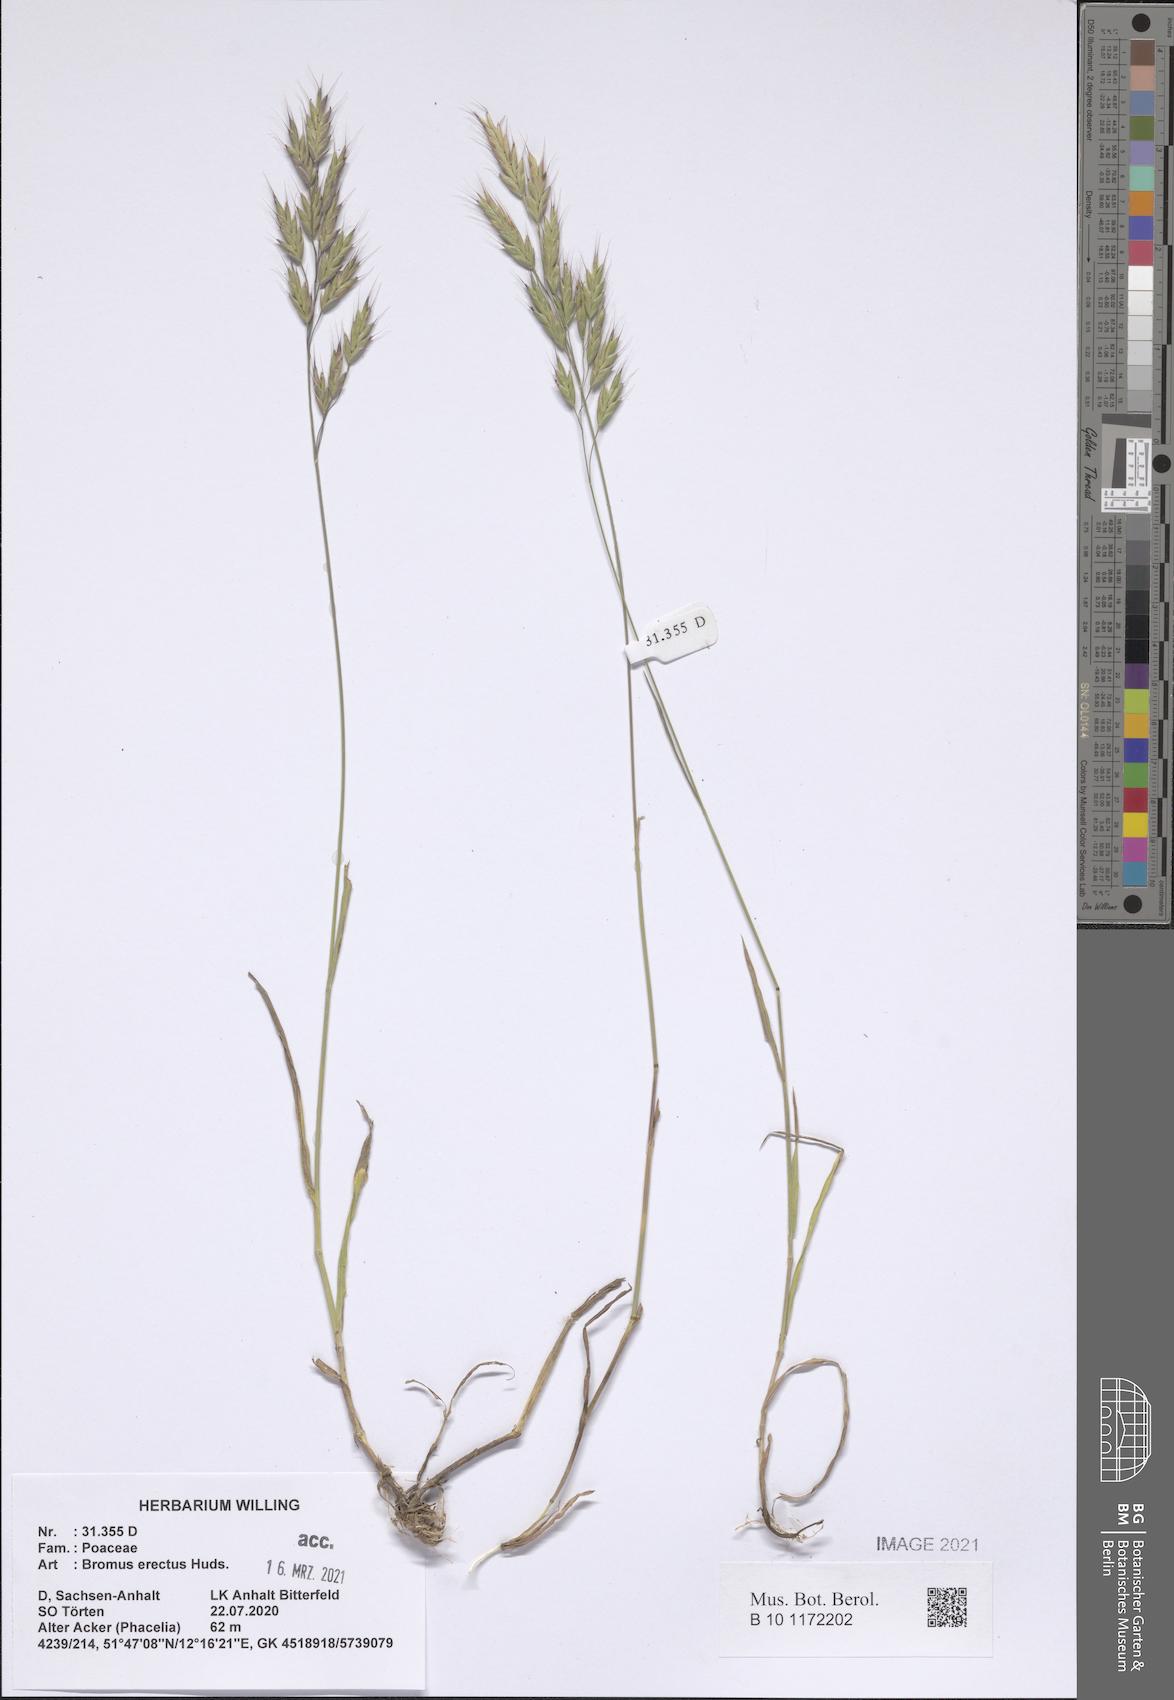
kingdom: Plantae
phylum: Tracheophyta
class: Liliopsida
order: Poales
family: Poaceae
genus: Bromus
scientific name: Bromus erectus
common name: Erect brome
